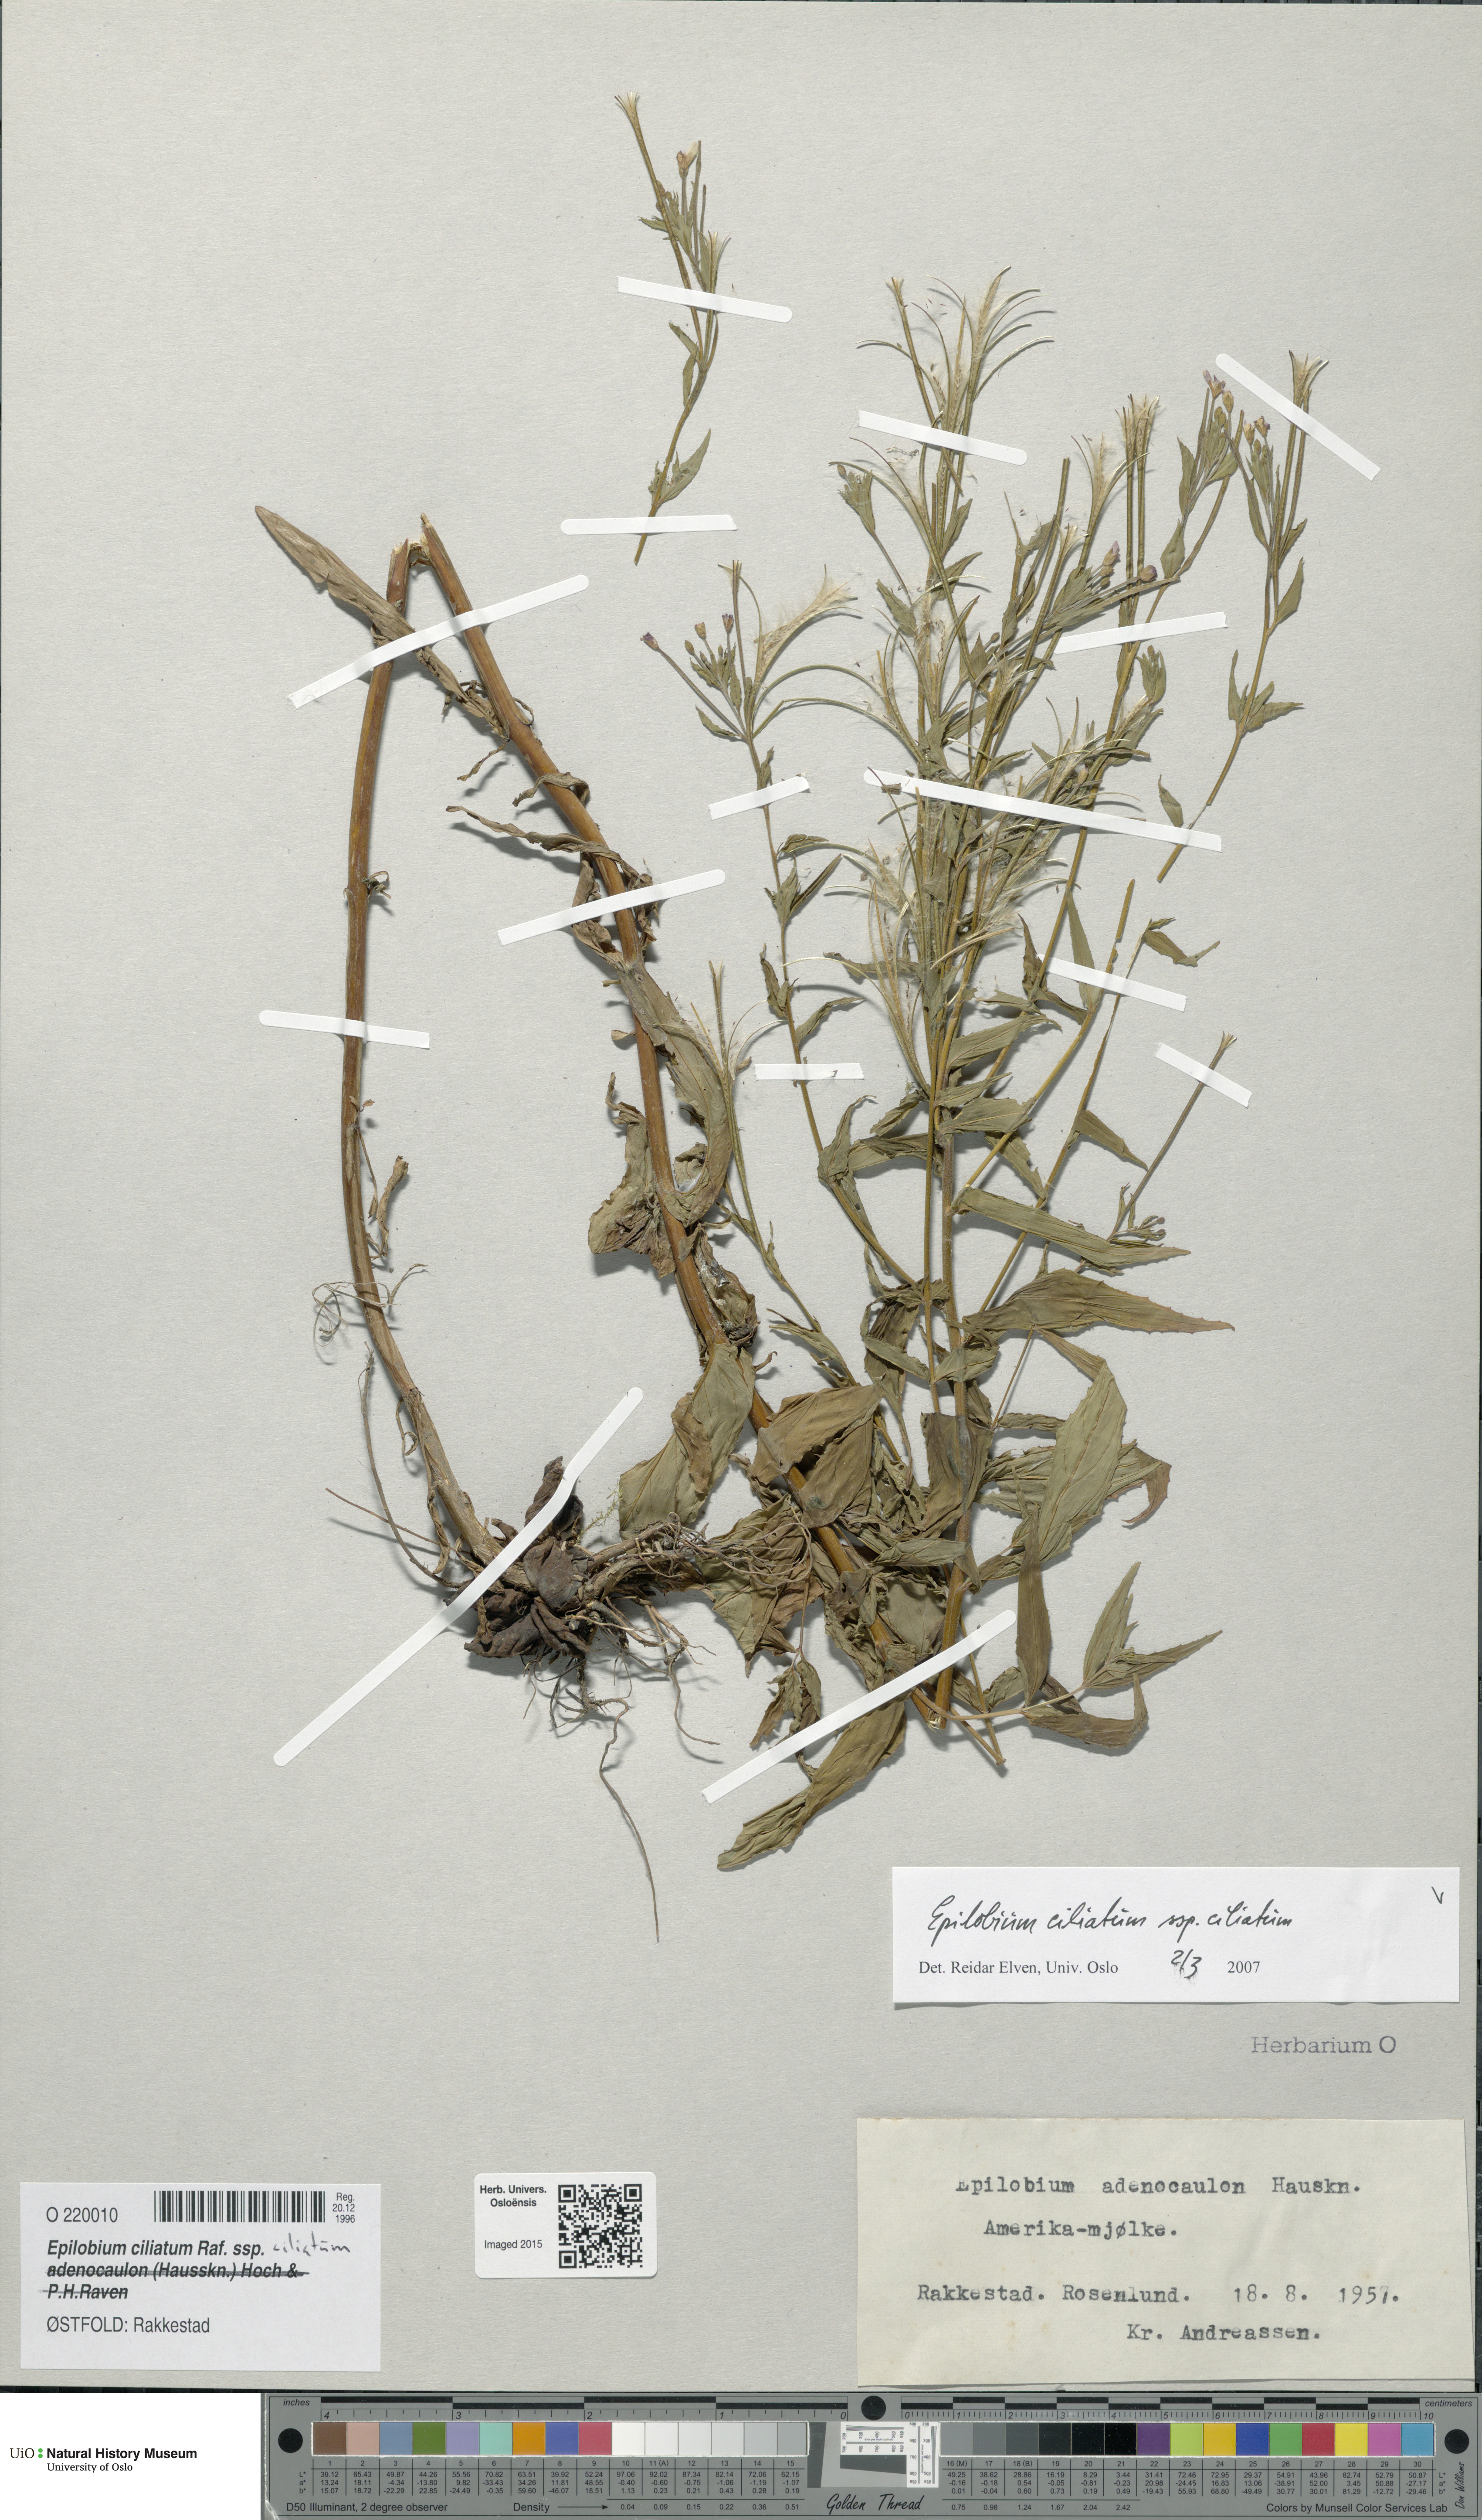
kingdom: Plantae
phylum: Tracheophyta
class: Magnoliopsida
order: Myrtales
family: Onagraceae
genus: Epilobium
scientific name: Epilobium ciliatum
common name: American willowherb
